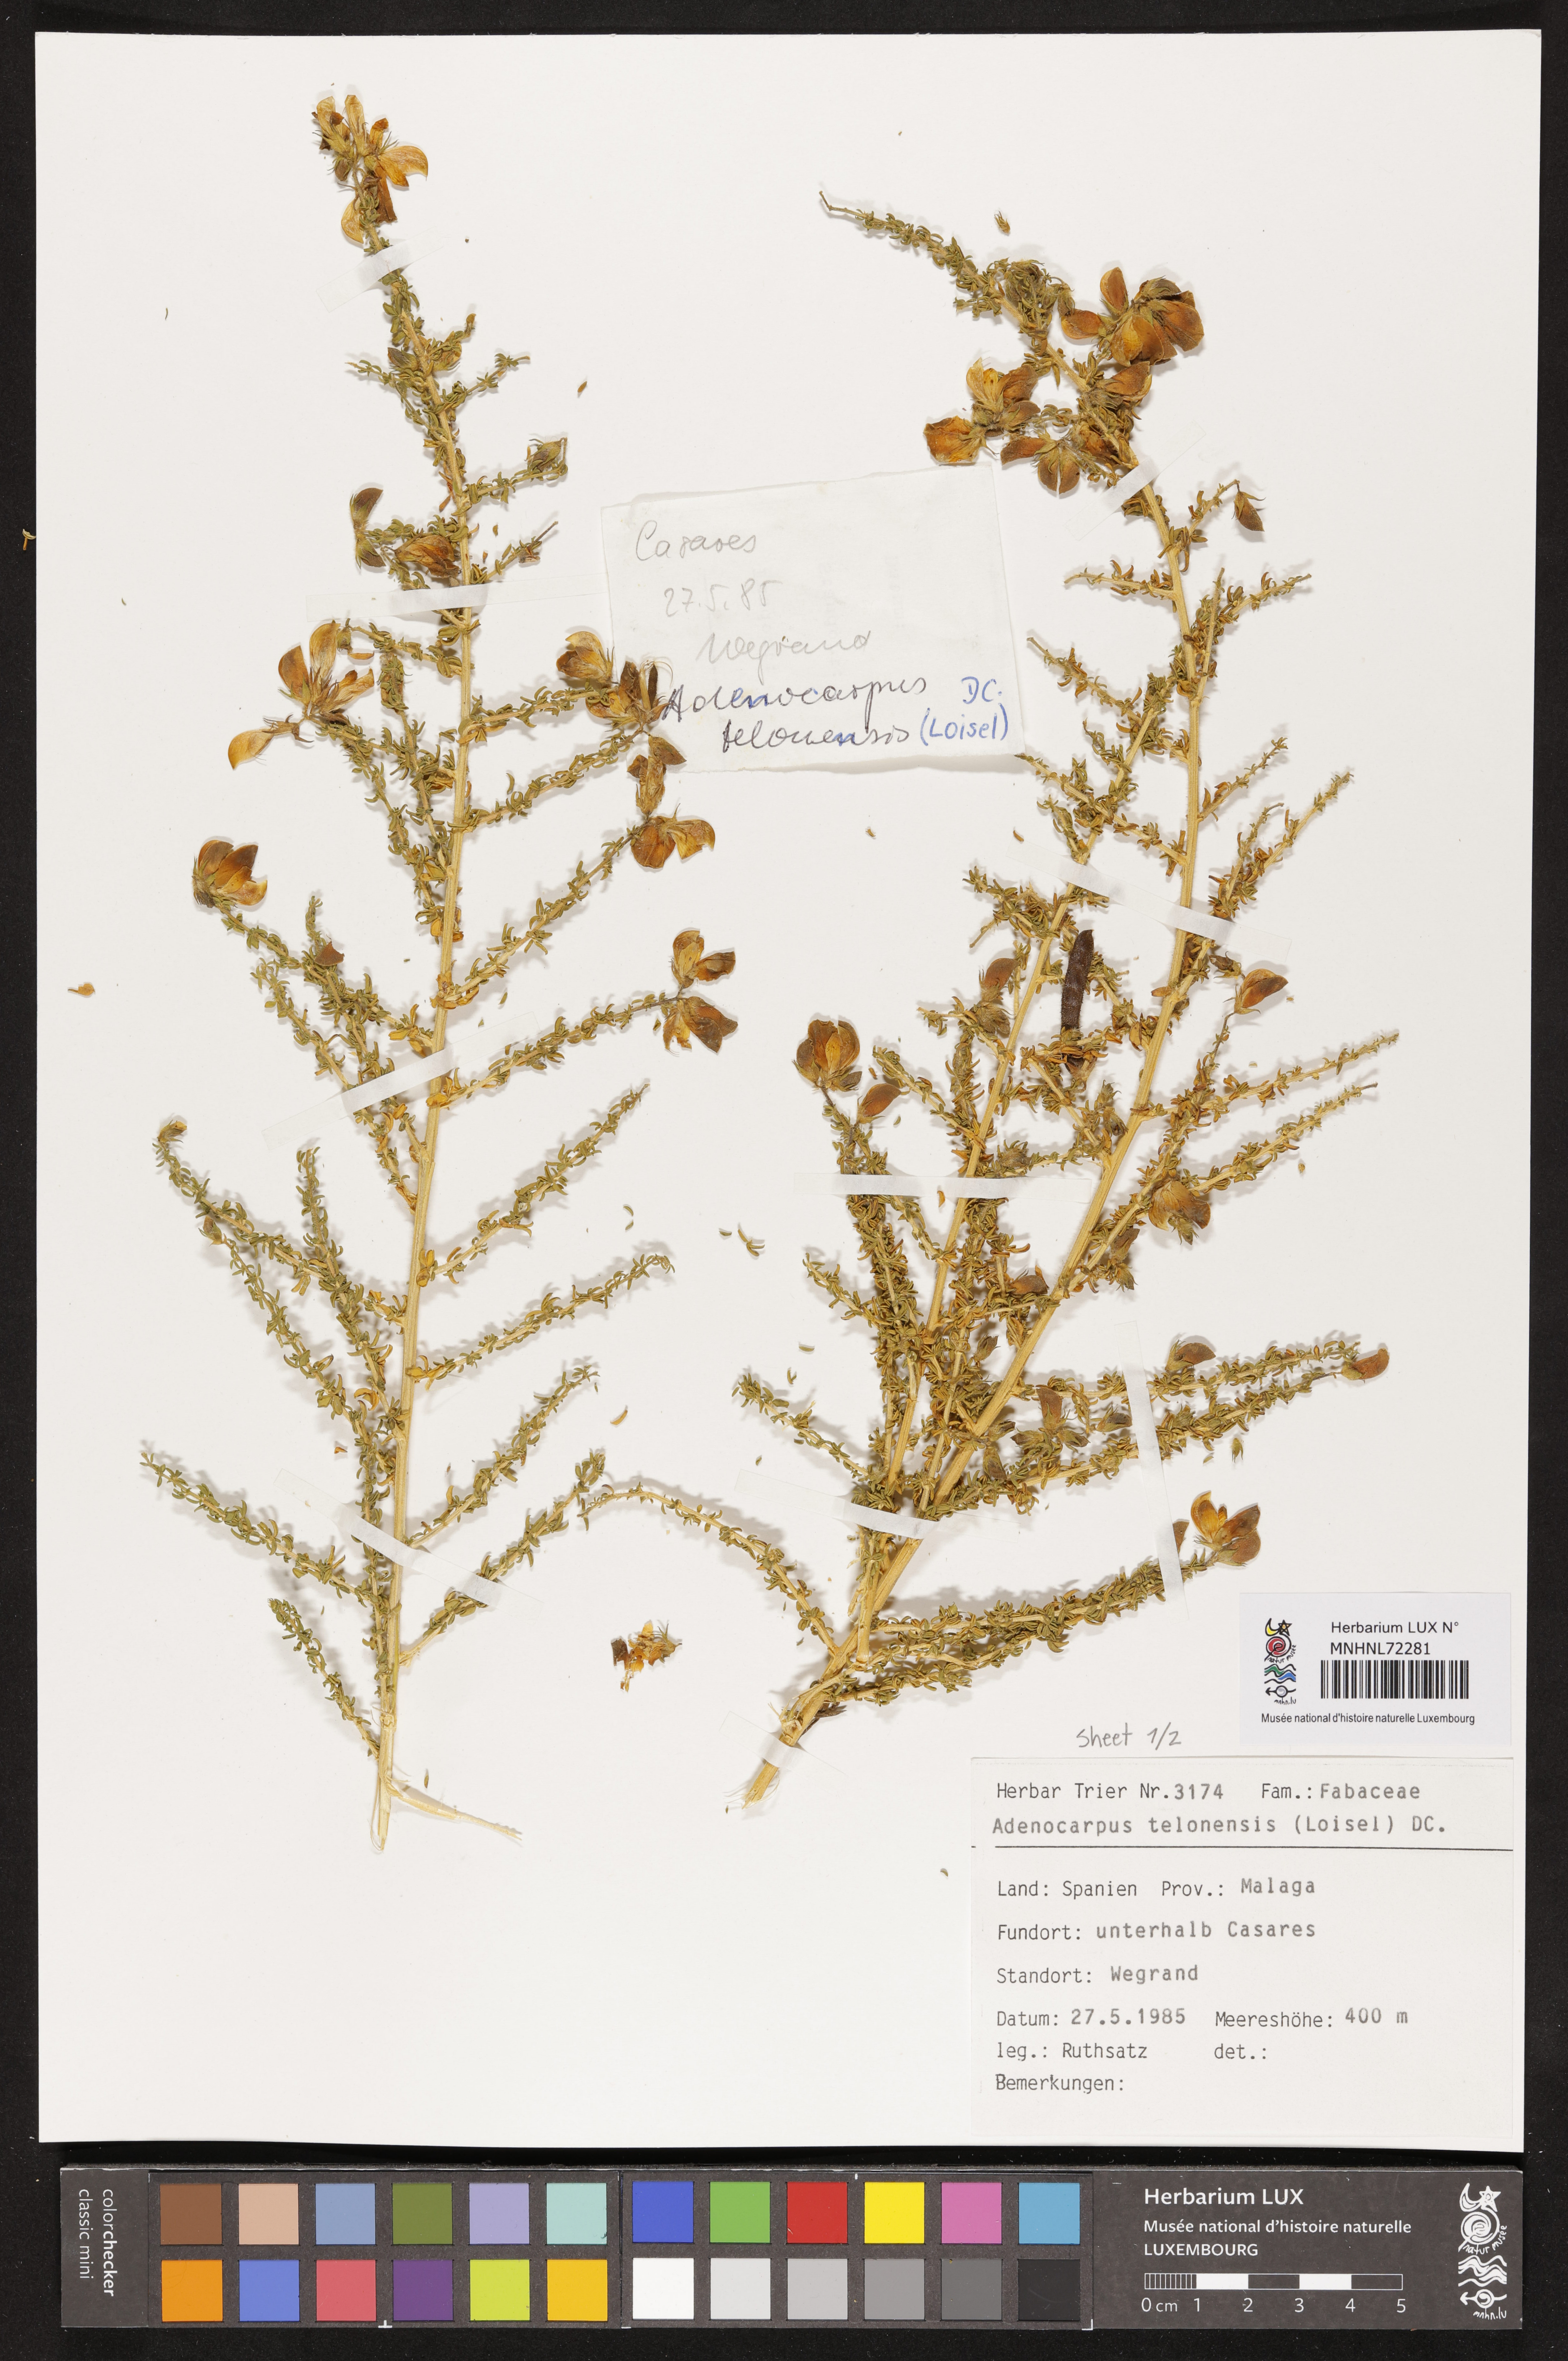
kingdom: Plantae
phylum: Tracheophyta
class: Magnoliopsida
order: Fabales
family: Fabaceae
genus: Adenocarpus
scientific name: Adenocarpus telonensis
